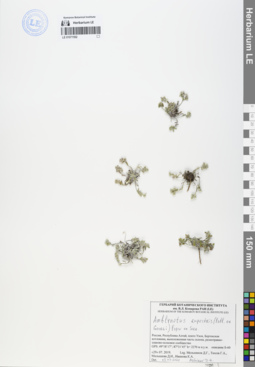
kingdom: Plantae
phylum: Tracheophyta
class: Magnoliopsida
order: Boraginales
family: Boraginaceae
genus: Eritrichium
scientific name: Eritrichium rupestre
